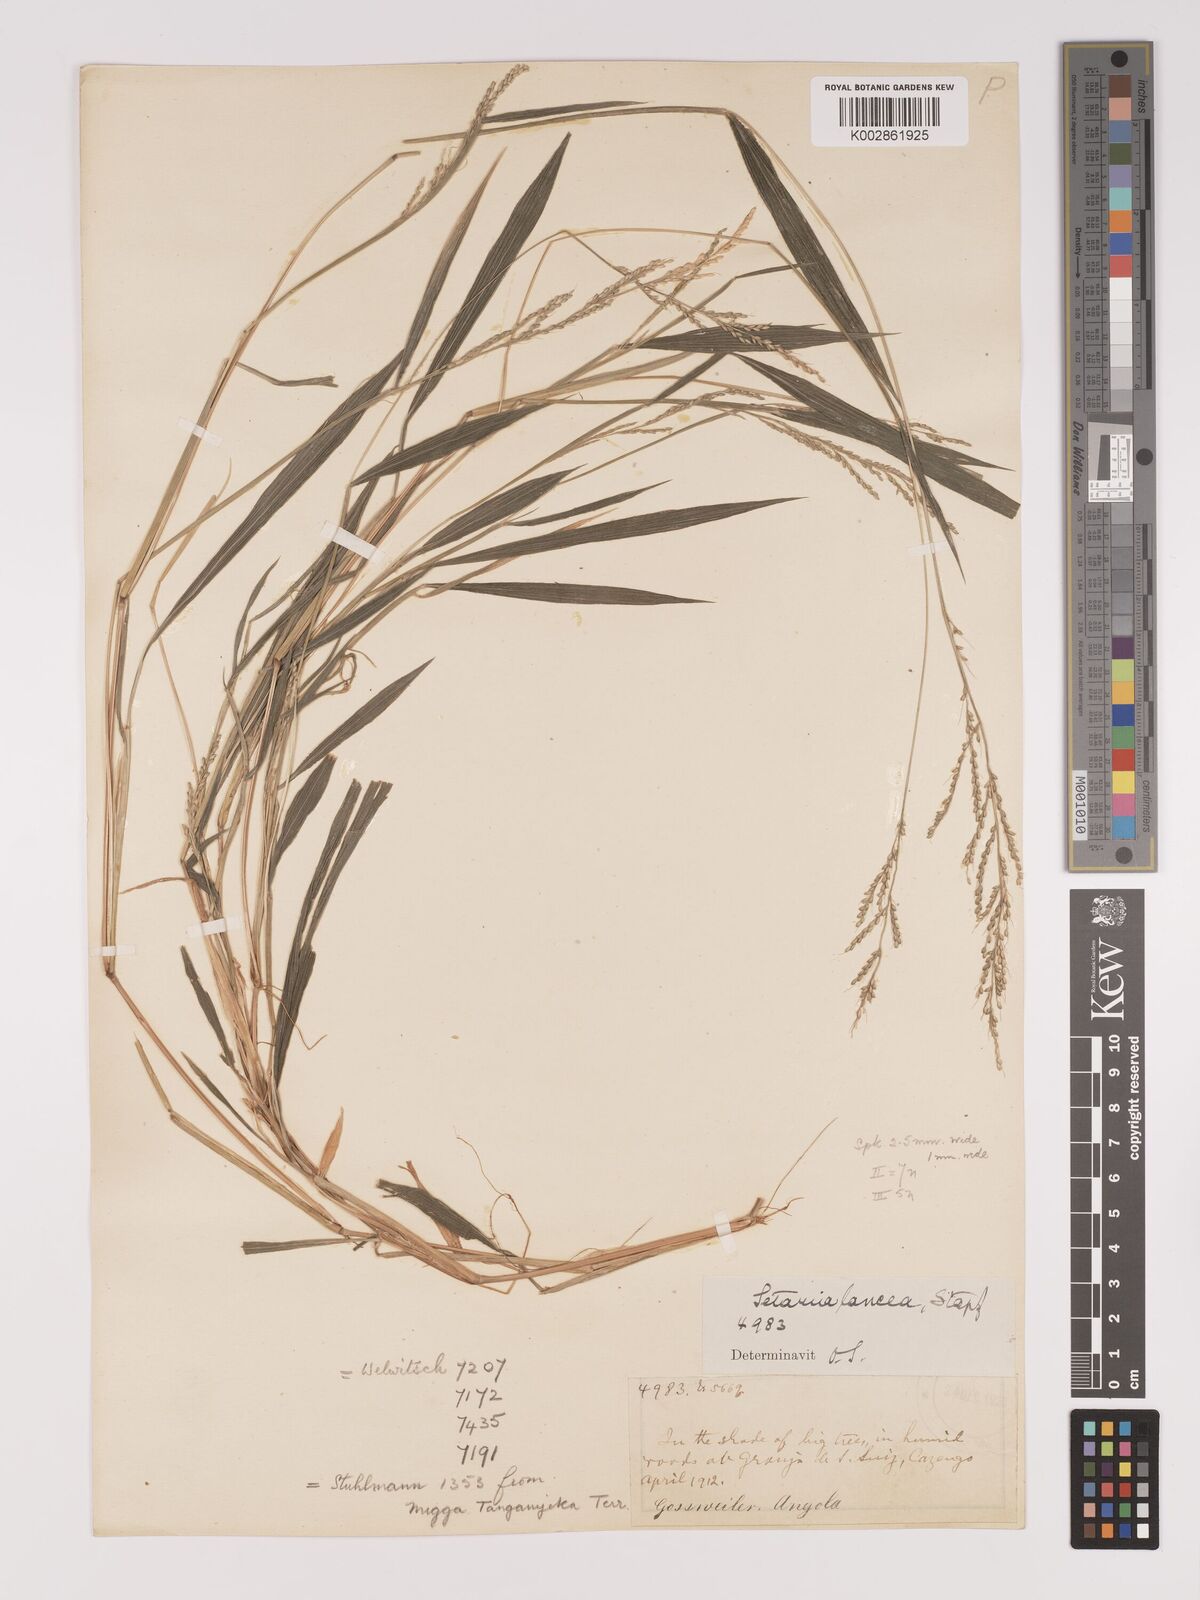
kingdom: Plantae
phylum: Tracheophyta
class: Liliopsida
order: Poales
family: Poaceae
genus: Setaria
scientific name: Setaria homonyma
